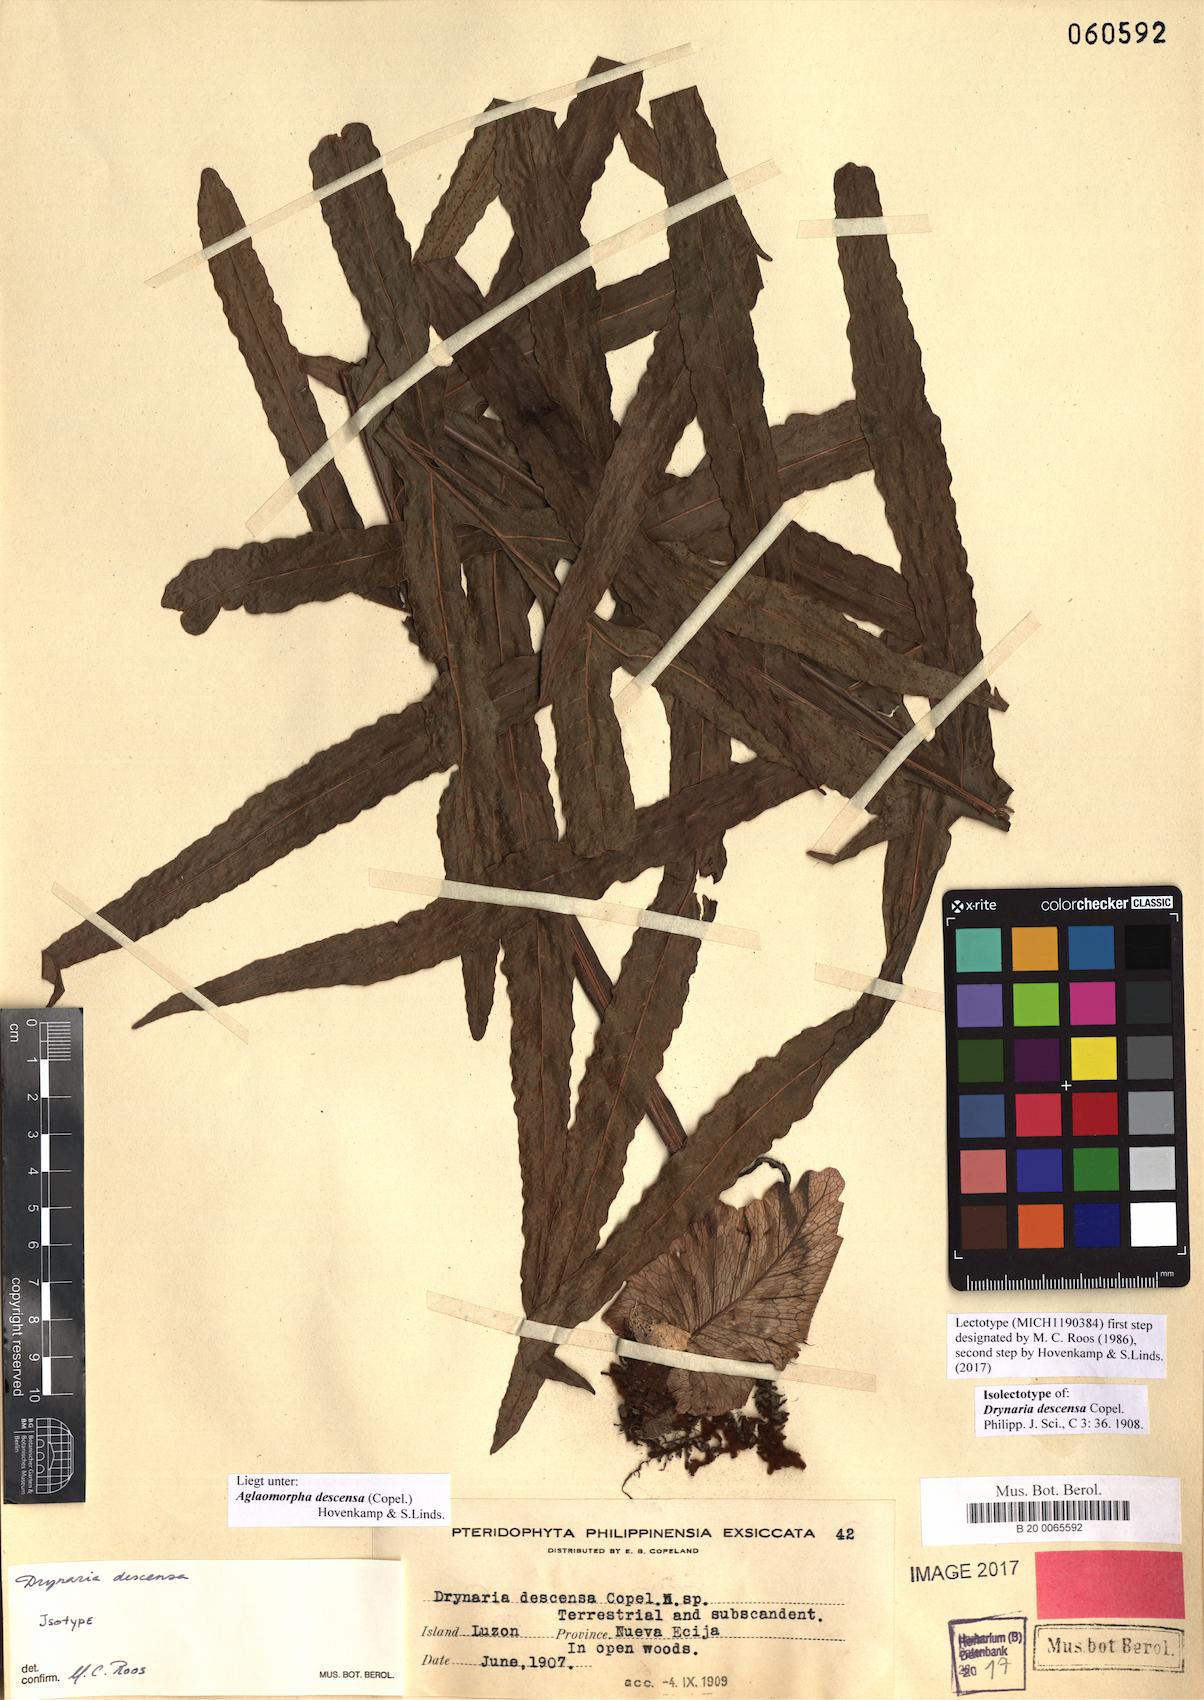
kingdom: Plantae
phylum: Tracheophyta
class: Polypodiopsida
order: Polypodiales
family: Polypodiaceae
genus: Drynaria
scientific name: Drynaria descensa
